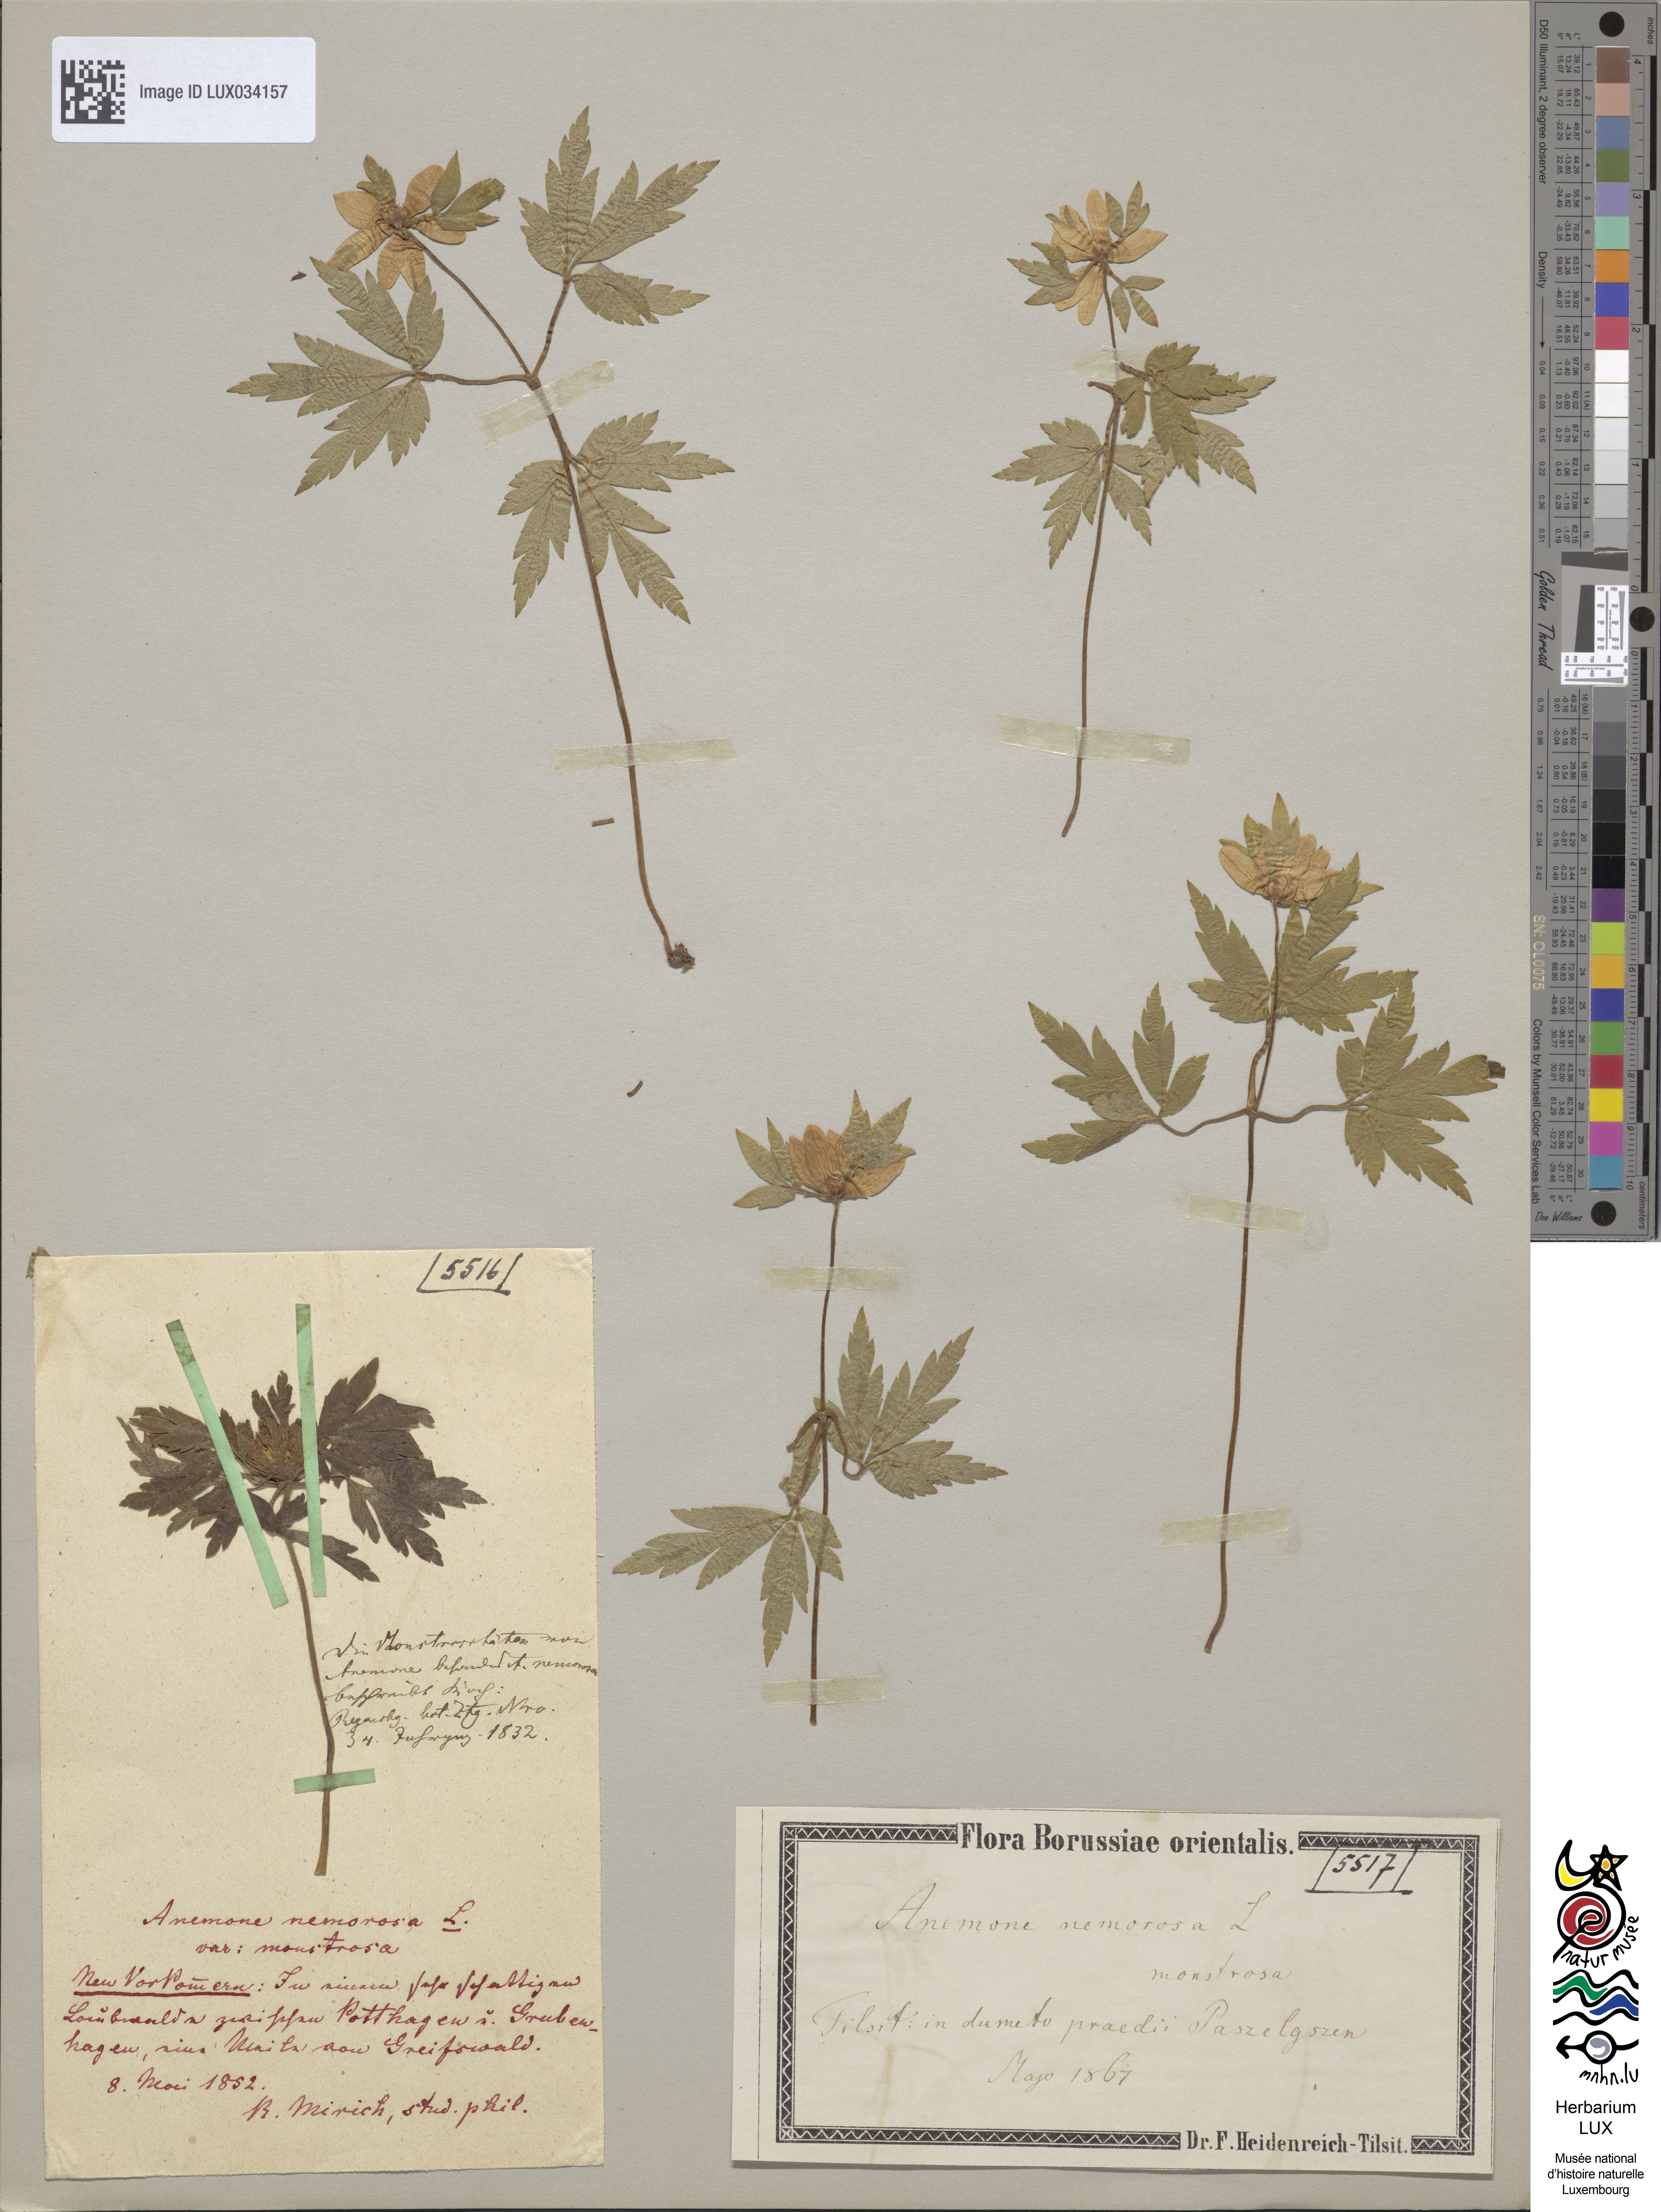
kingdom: Plantae
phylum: Tracheophyta
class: Magnoliopsida
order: Ranunculales
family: Ranunculaceae
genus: Anemone
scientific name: Anemone nemorosa
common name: Wood anemone
